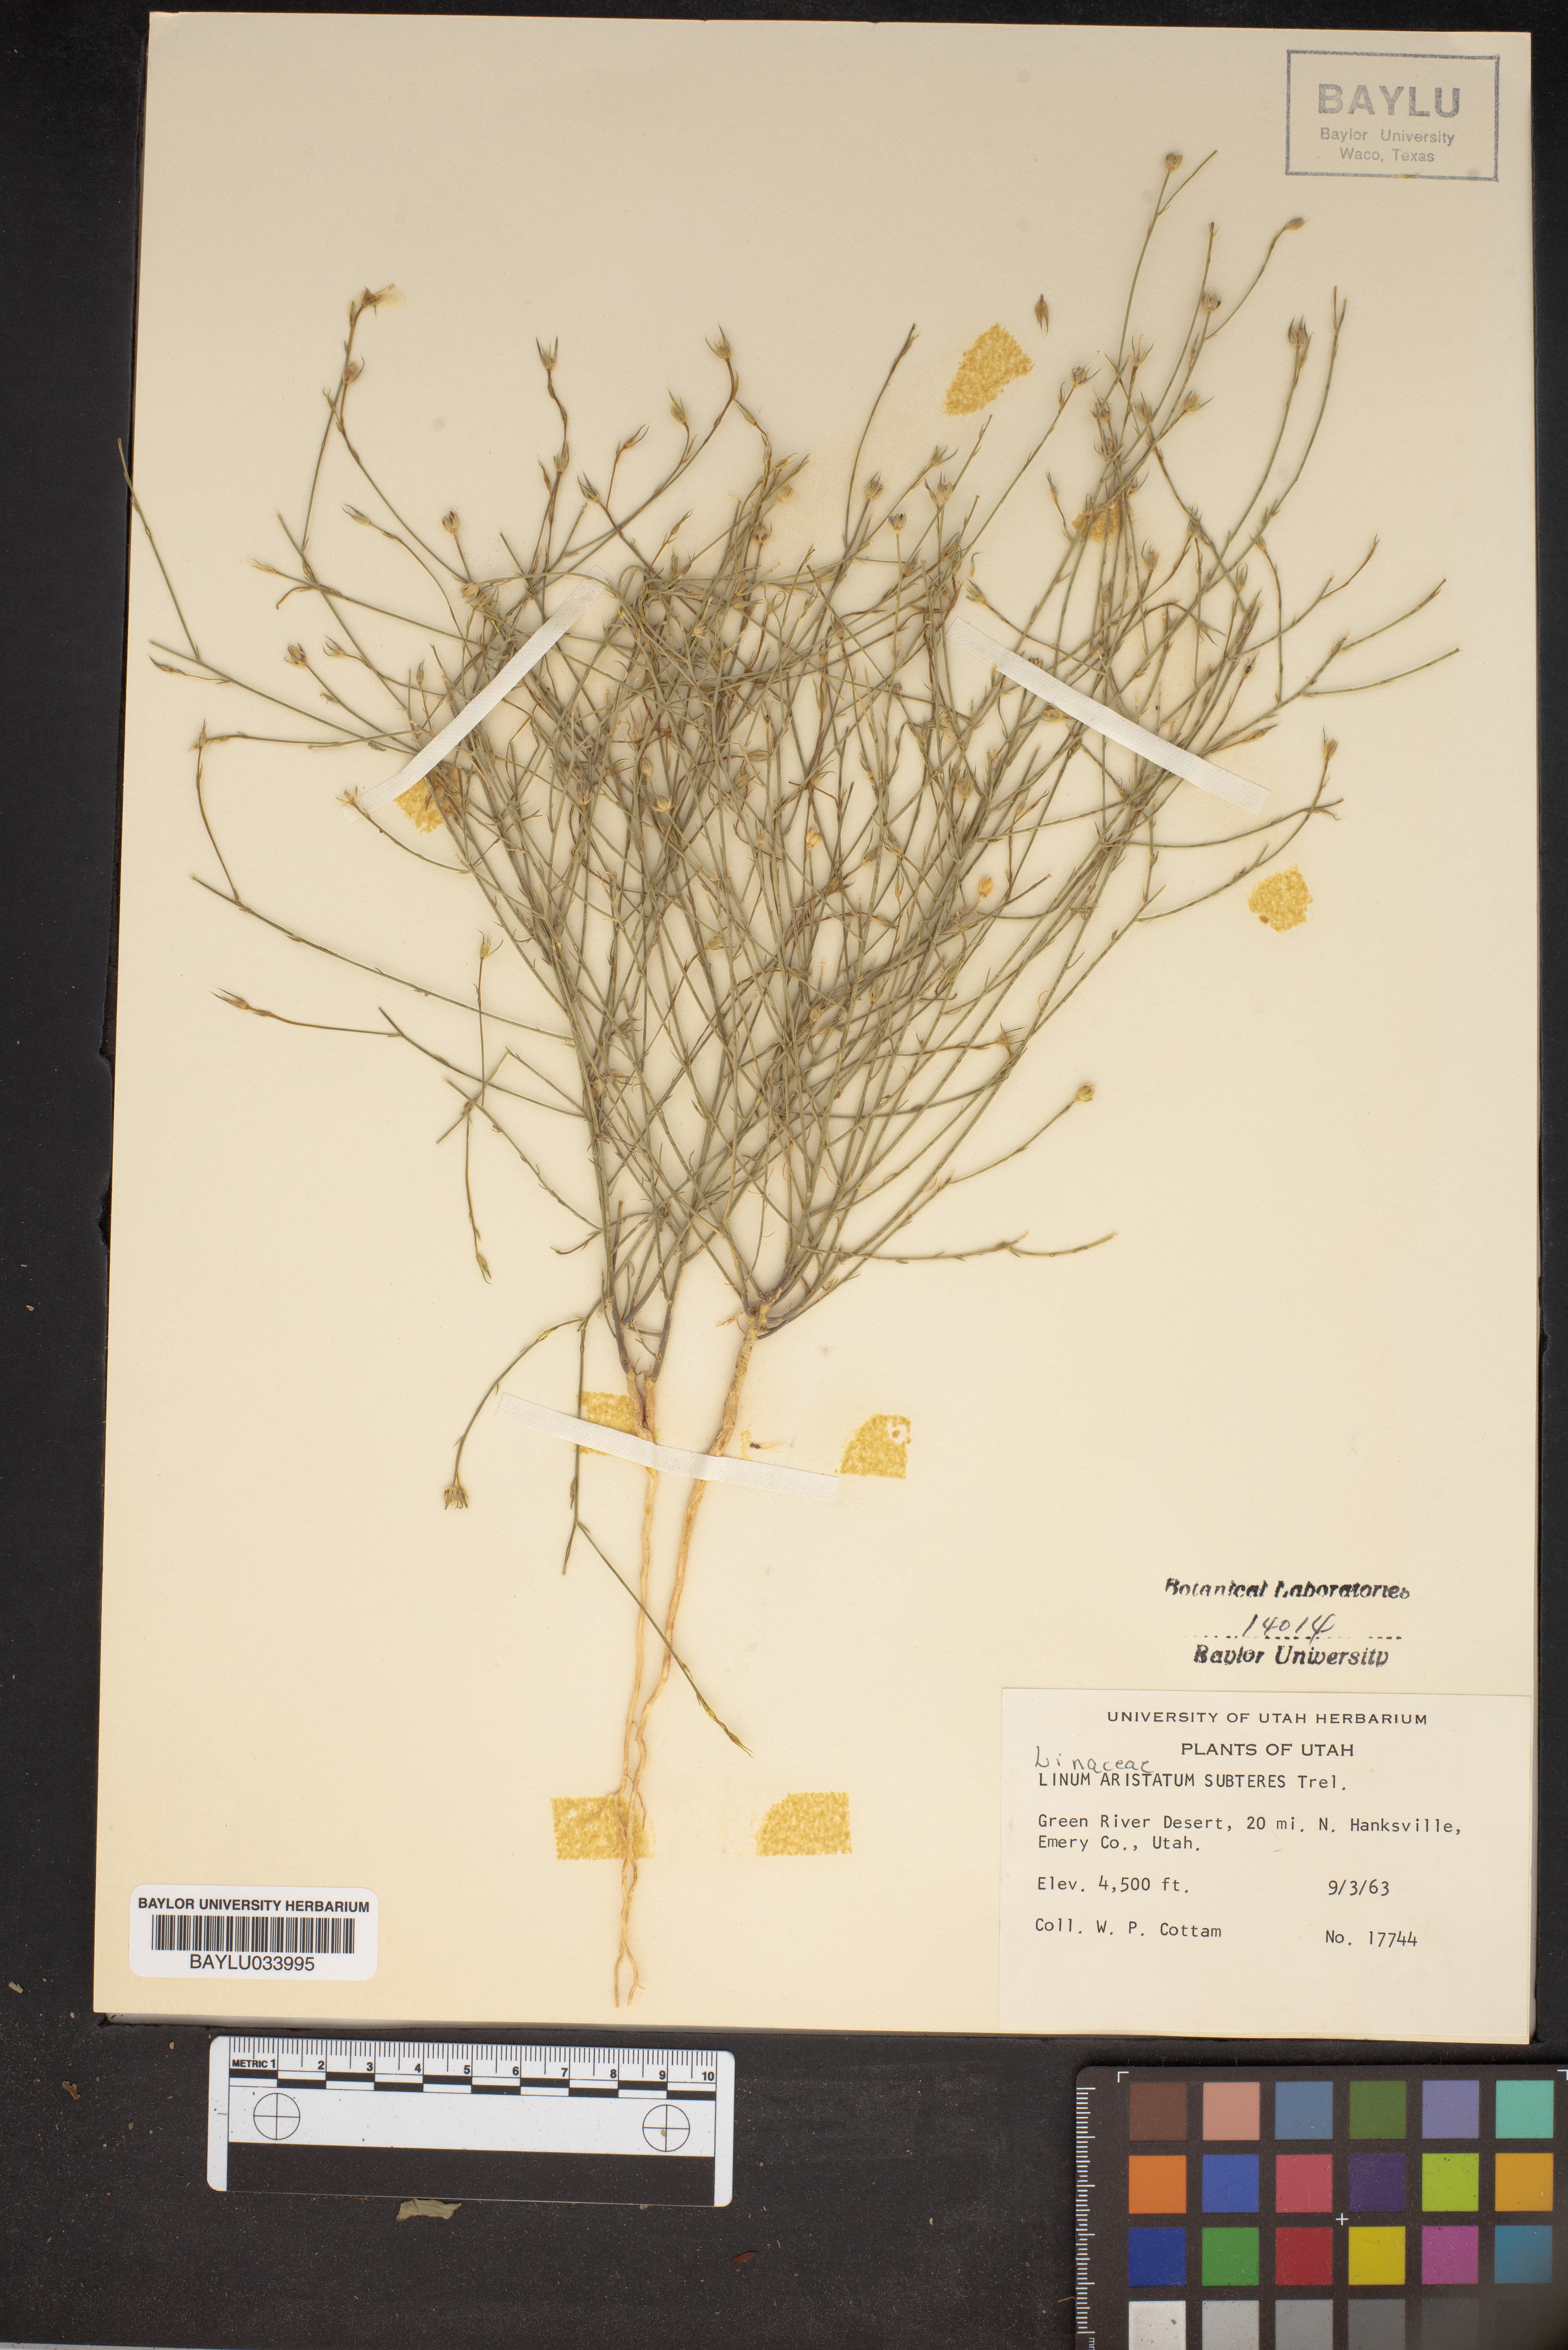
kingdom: Plantae
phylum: Tracheophyta
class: Magnoliopsida
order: Malpighiales
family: Linaceae
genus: Linum
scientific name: Linum aristatum
